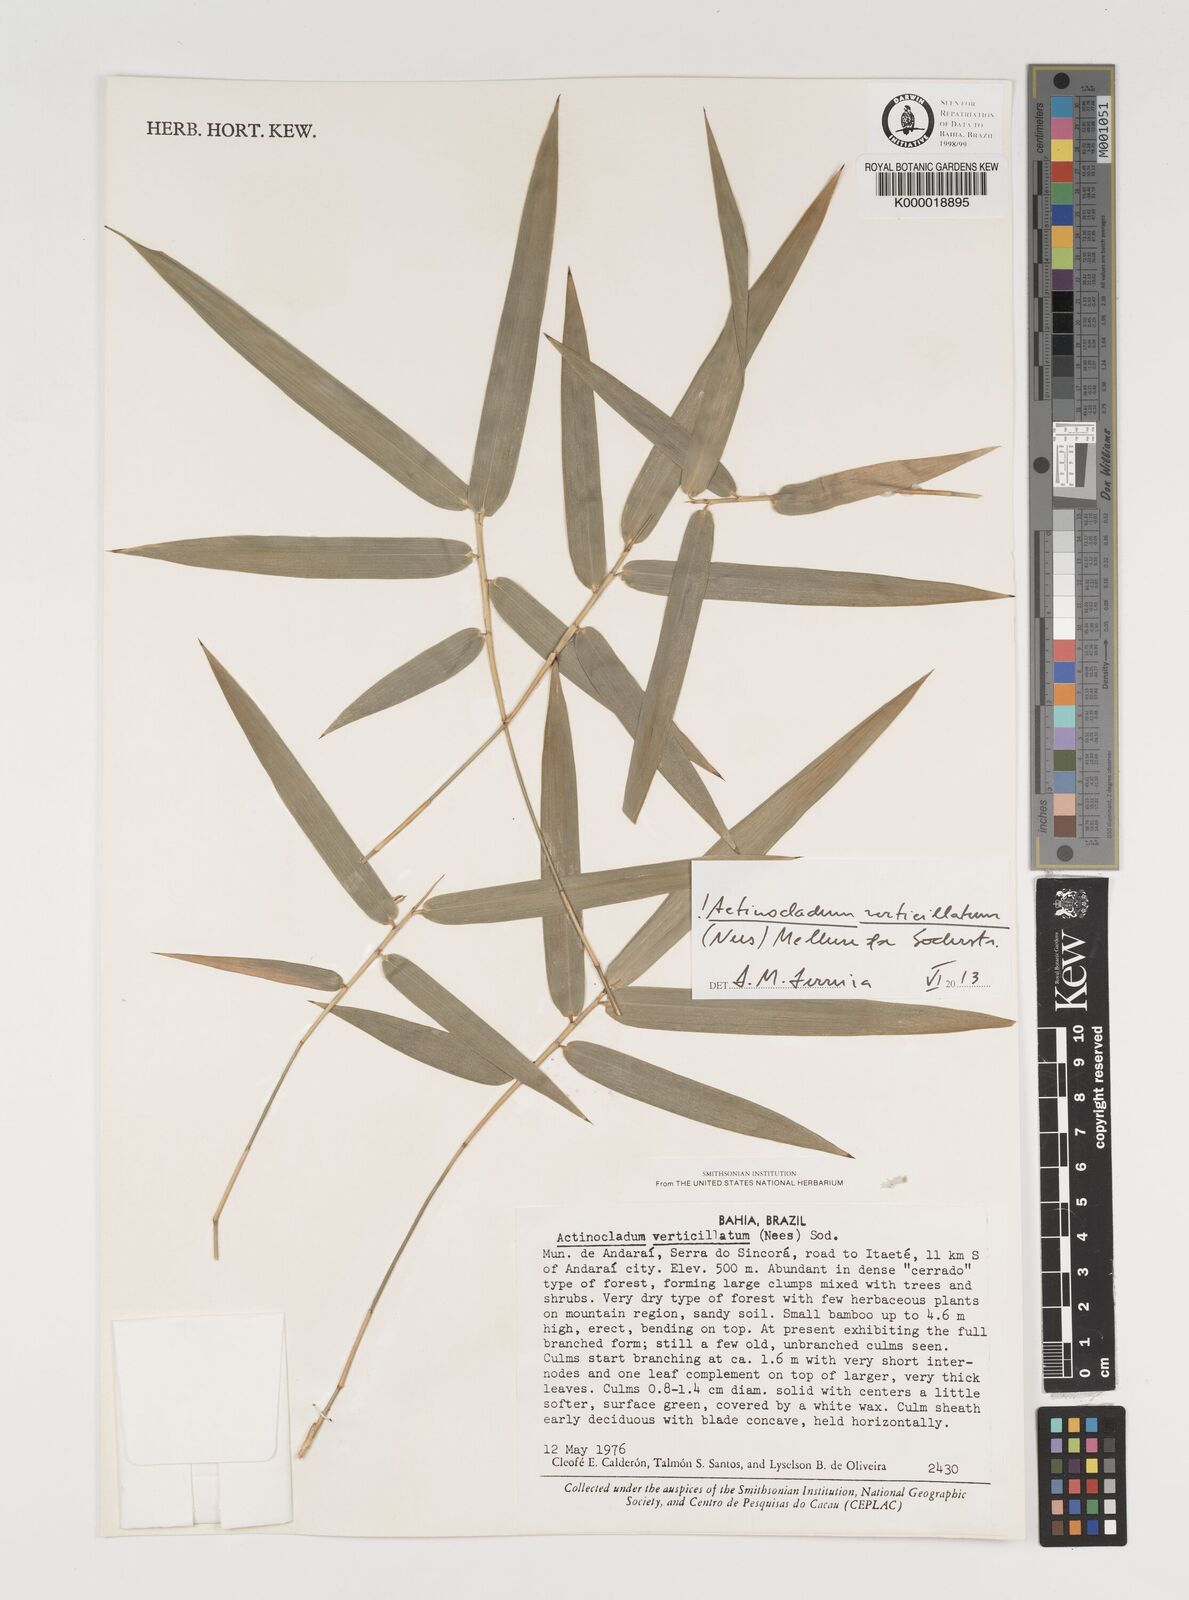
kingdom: Plantae
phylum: Tracheophyta
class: Liliopsida
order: Poales
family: Poaceae
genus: Actinocladum
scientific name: Actinocladum verticillatum
